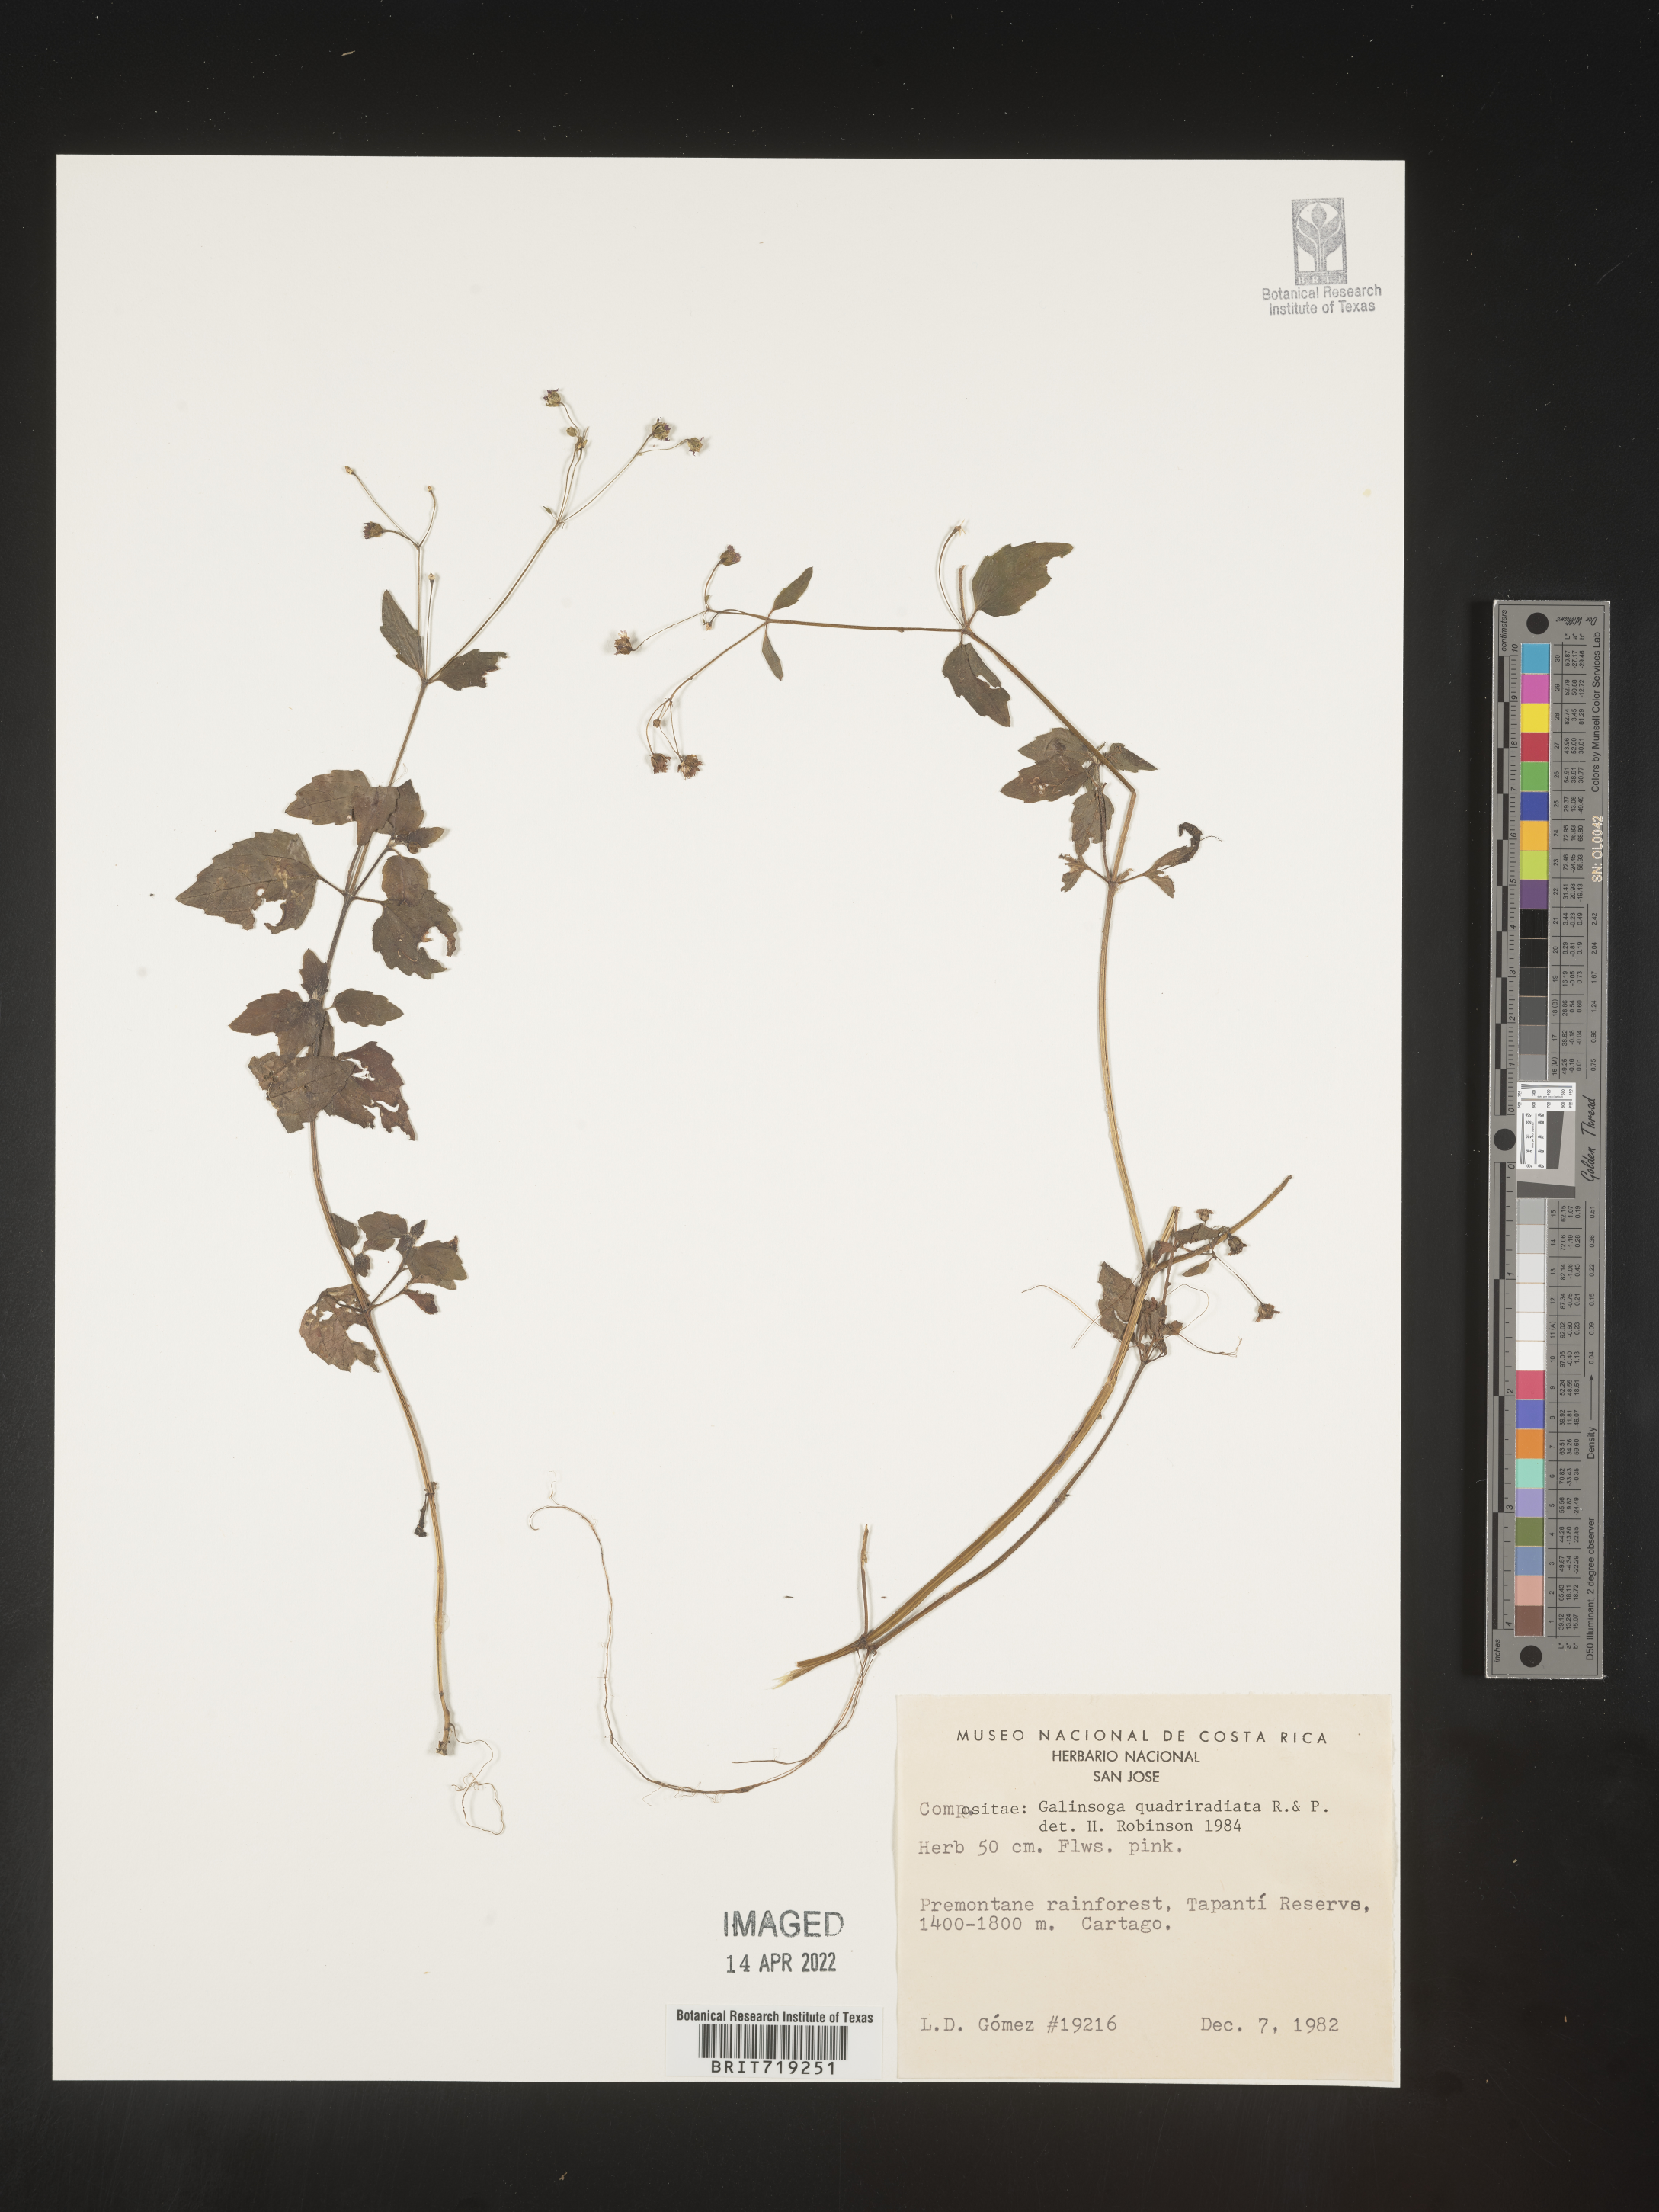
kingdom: Plantae
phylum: Tracheophyta
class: Magnoliopsida
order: Asterales
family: Asteraceae
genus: Galinsoga
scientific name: Galinsoga
